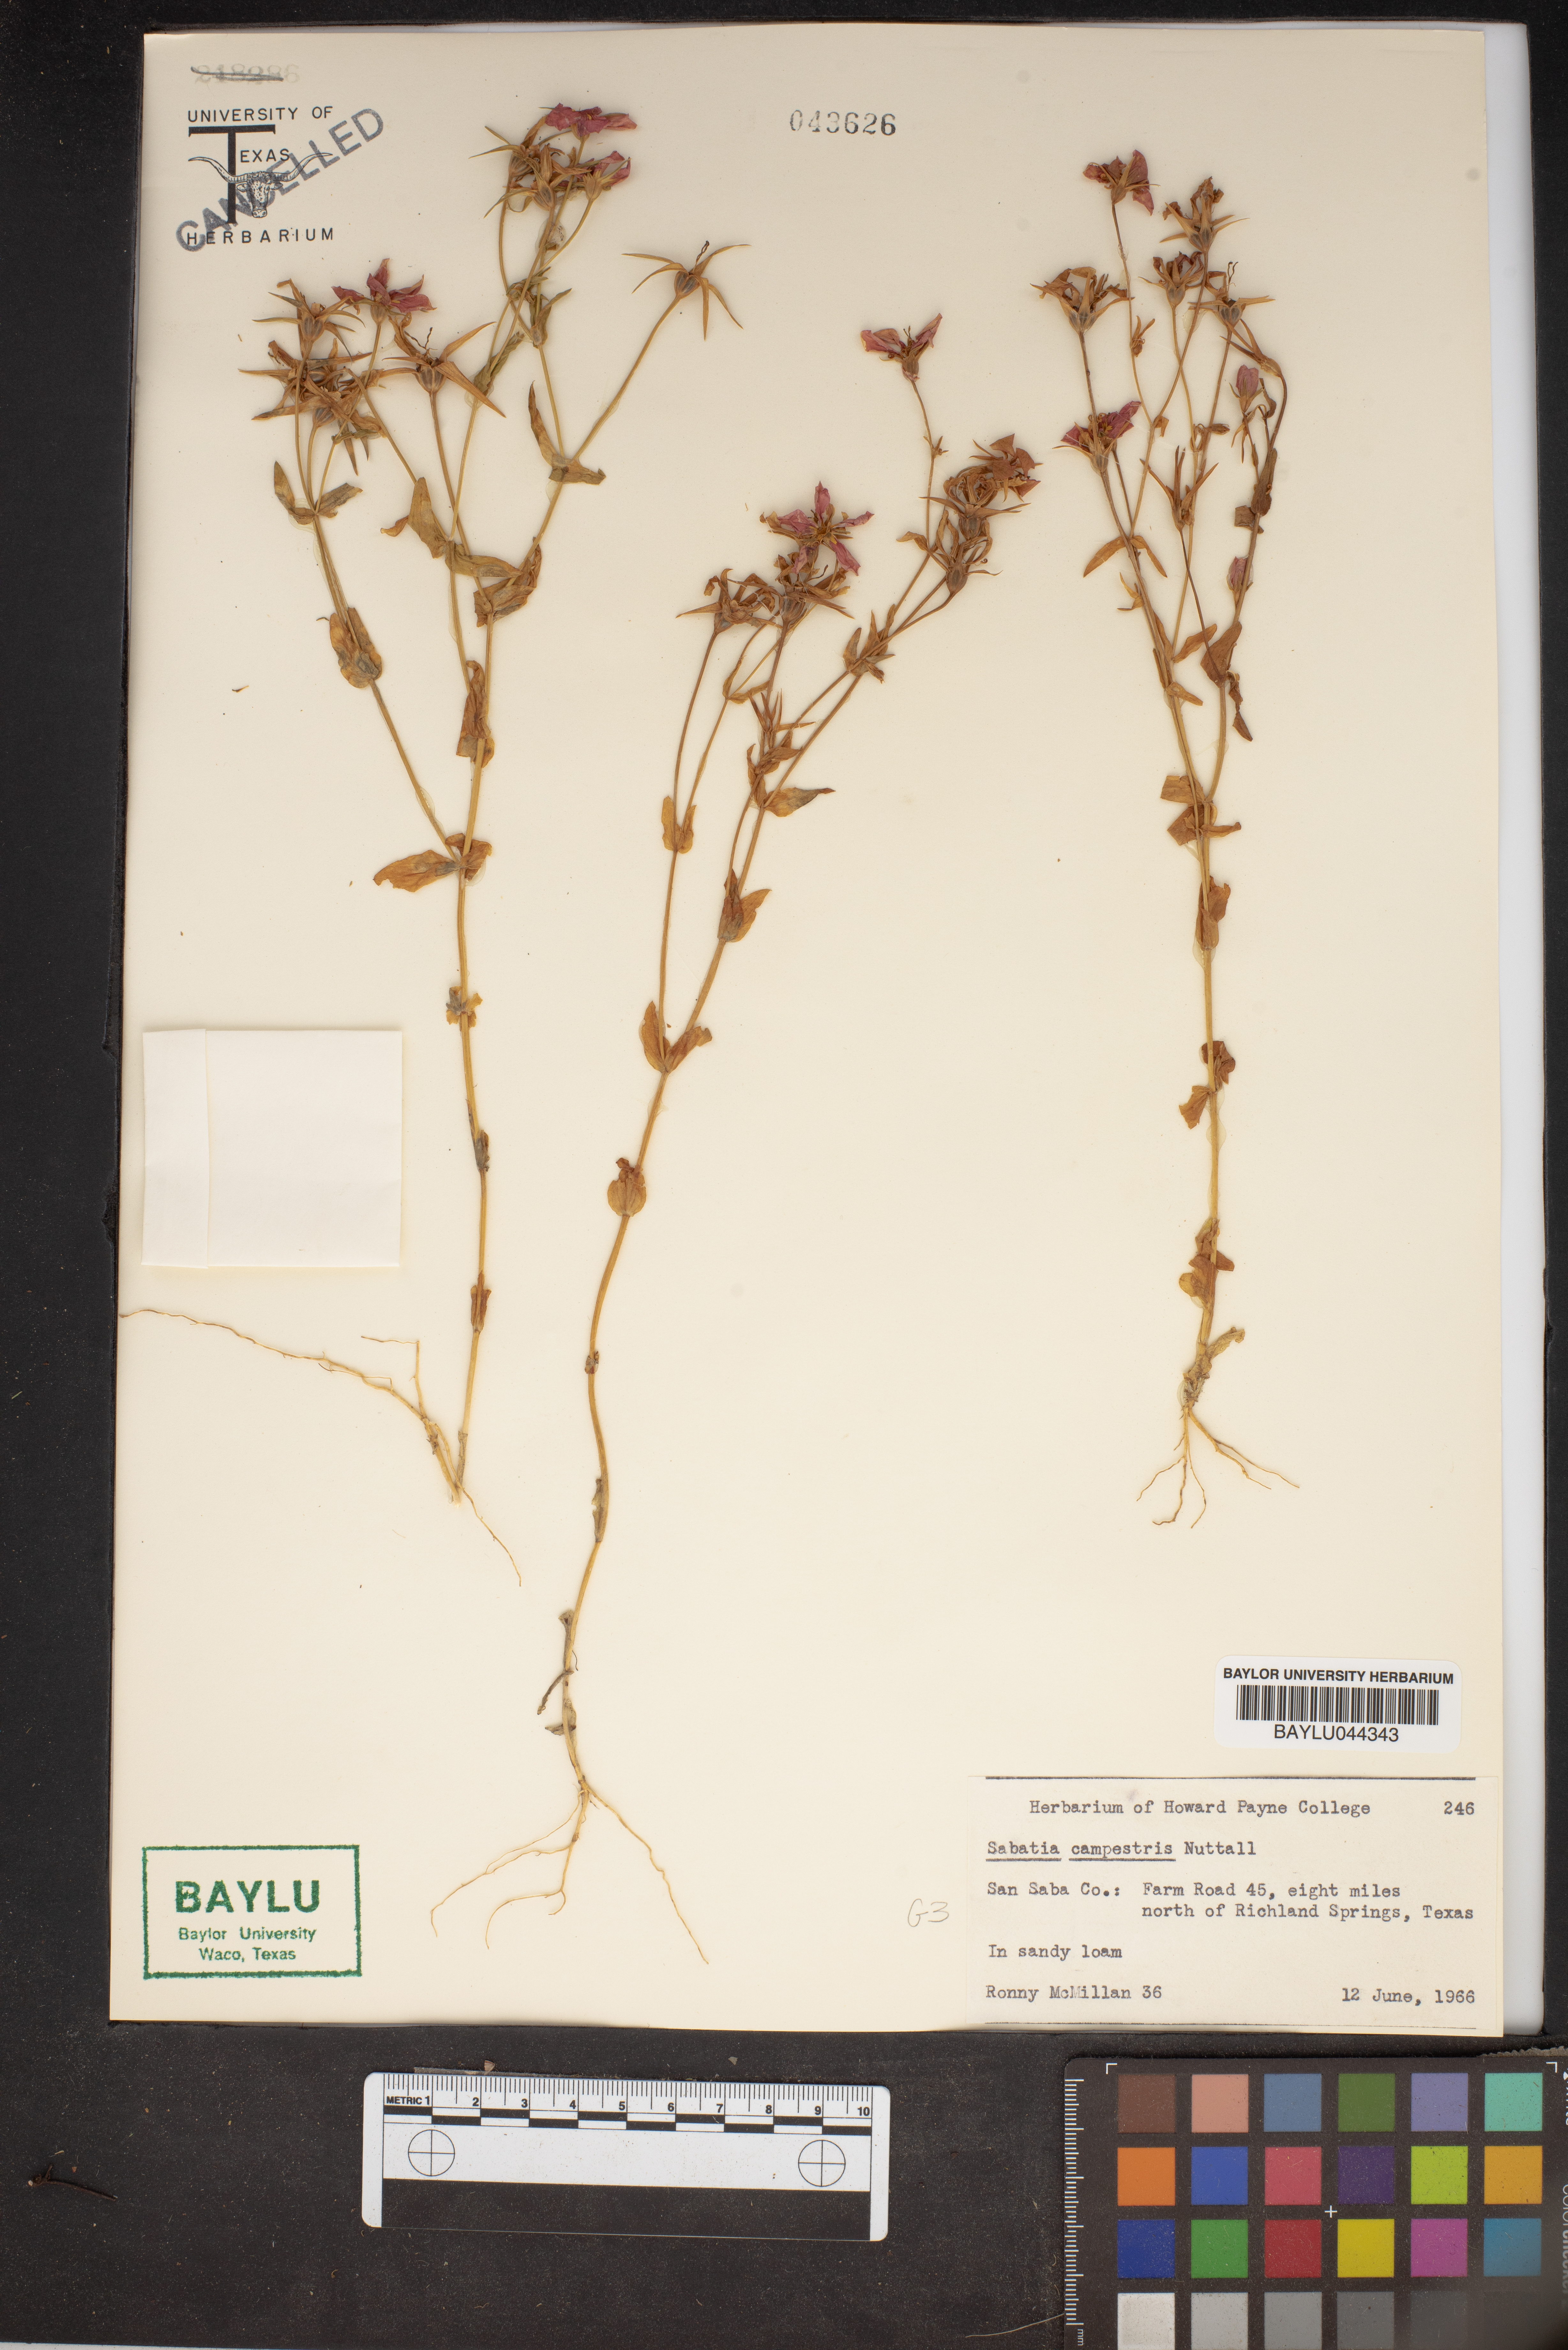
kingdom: Plantae
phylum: Tracheophyta
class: Magnoliopsida
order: Gentianales
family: Gentianaceae
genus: Sabatia
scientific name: Sabatia campestris
